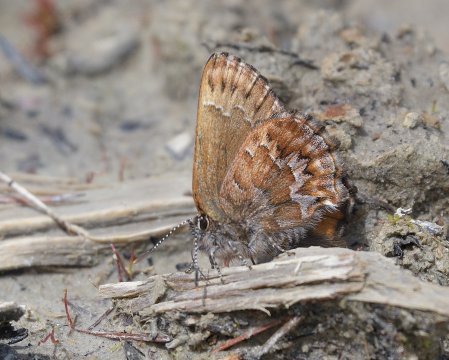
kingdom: Animalia
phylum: Arthropoda
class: Insecta
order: Lepidoptera
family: Lycaenidae
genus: Incisalia
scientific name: Incisalia niphon
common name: Eastern Pine Elfin
